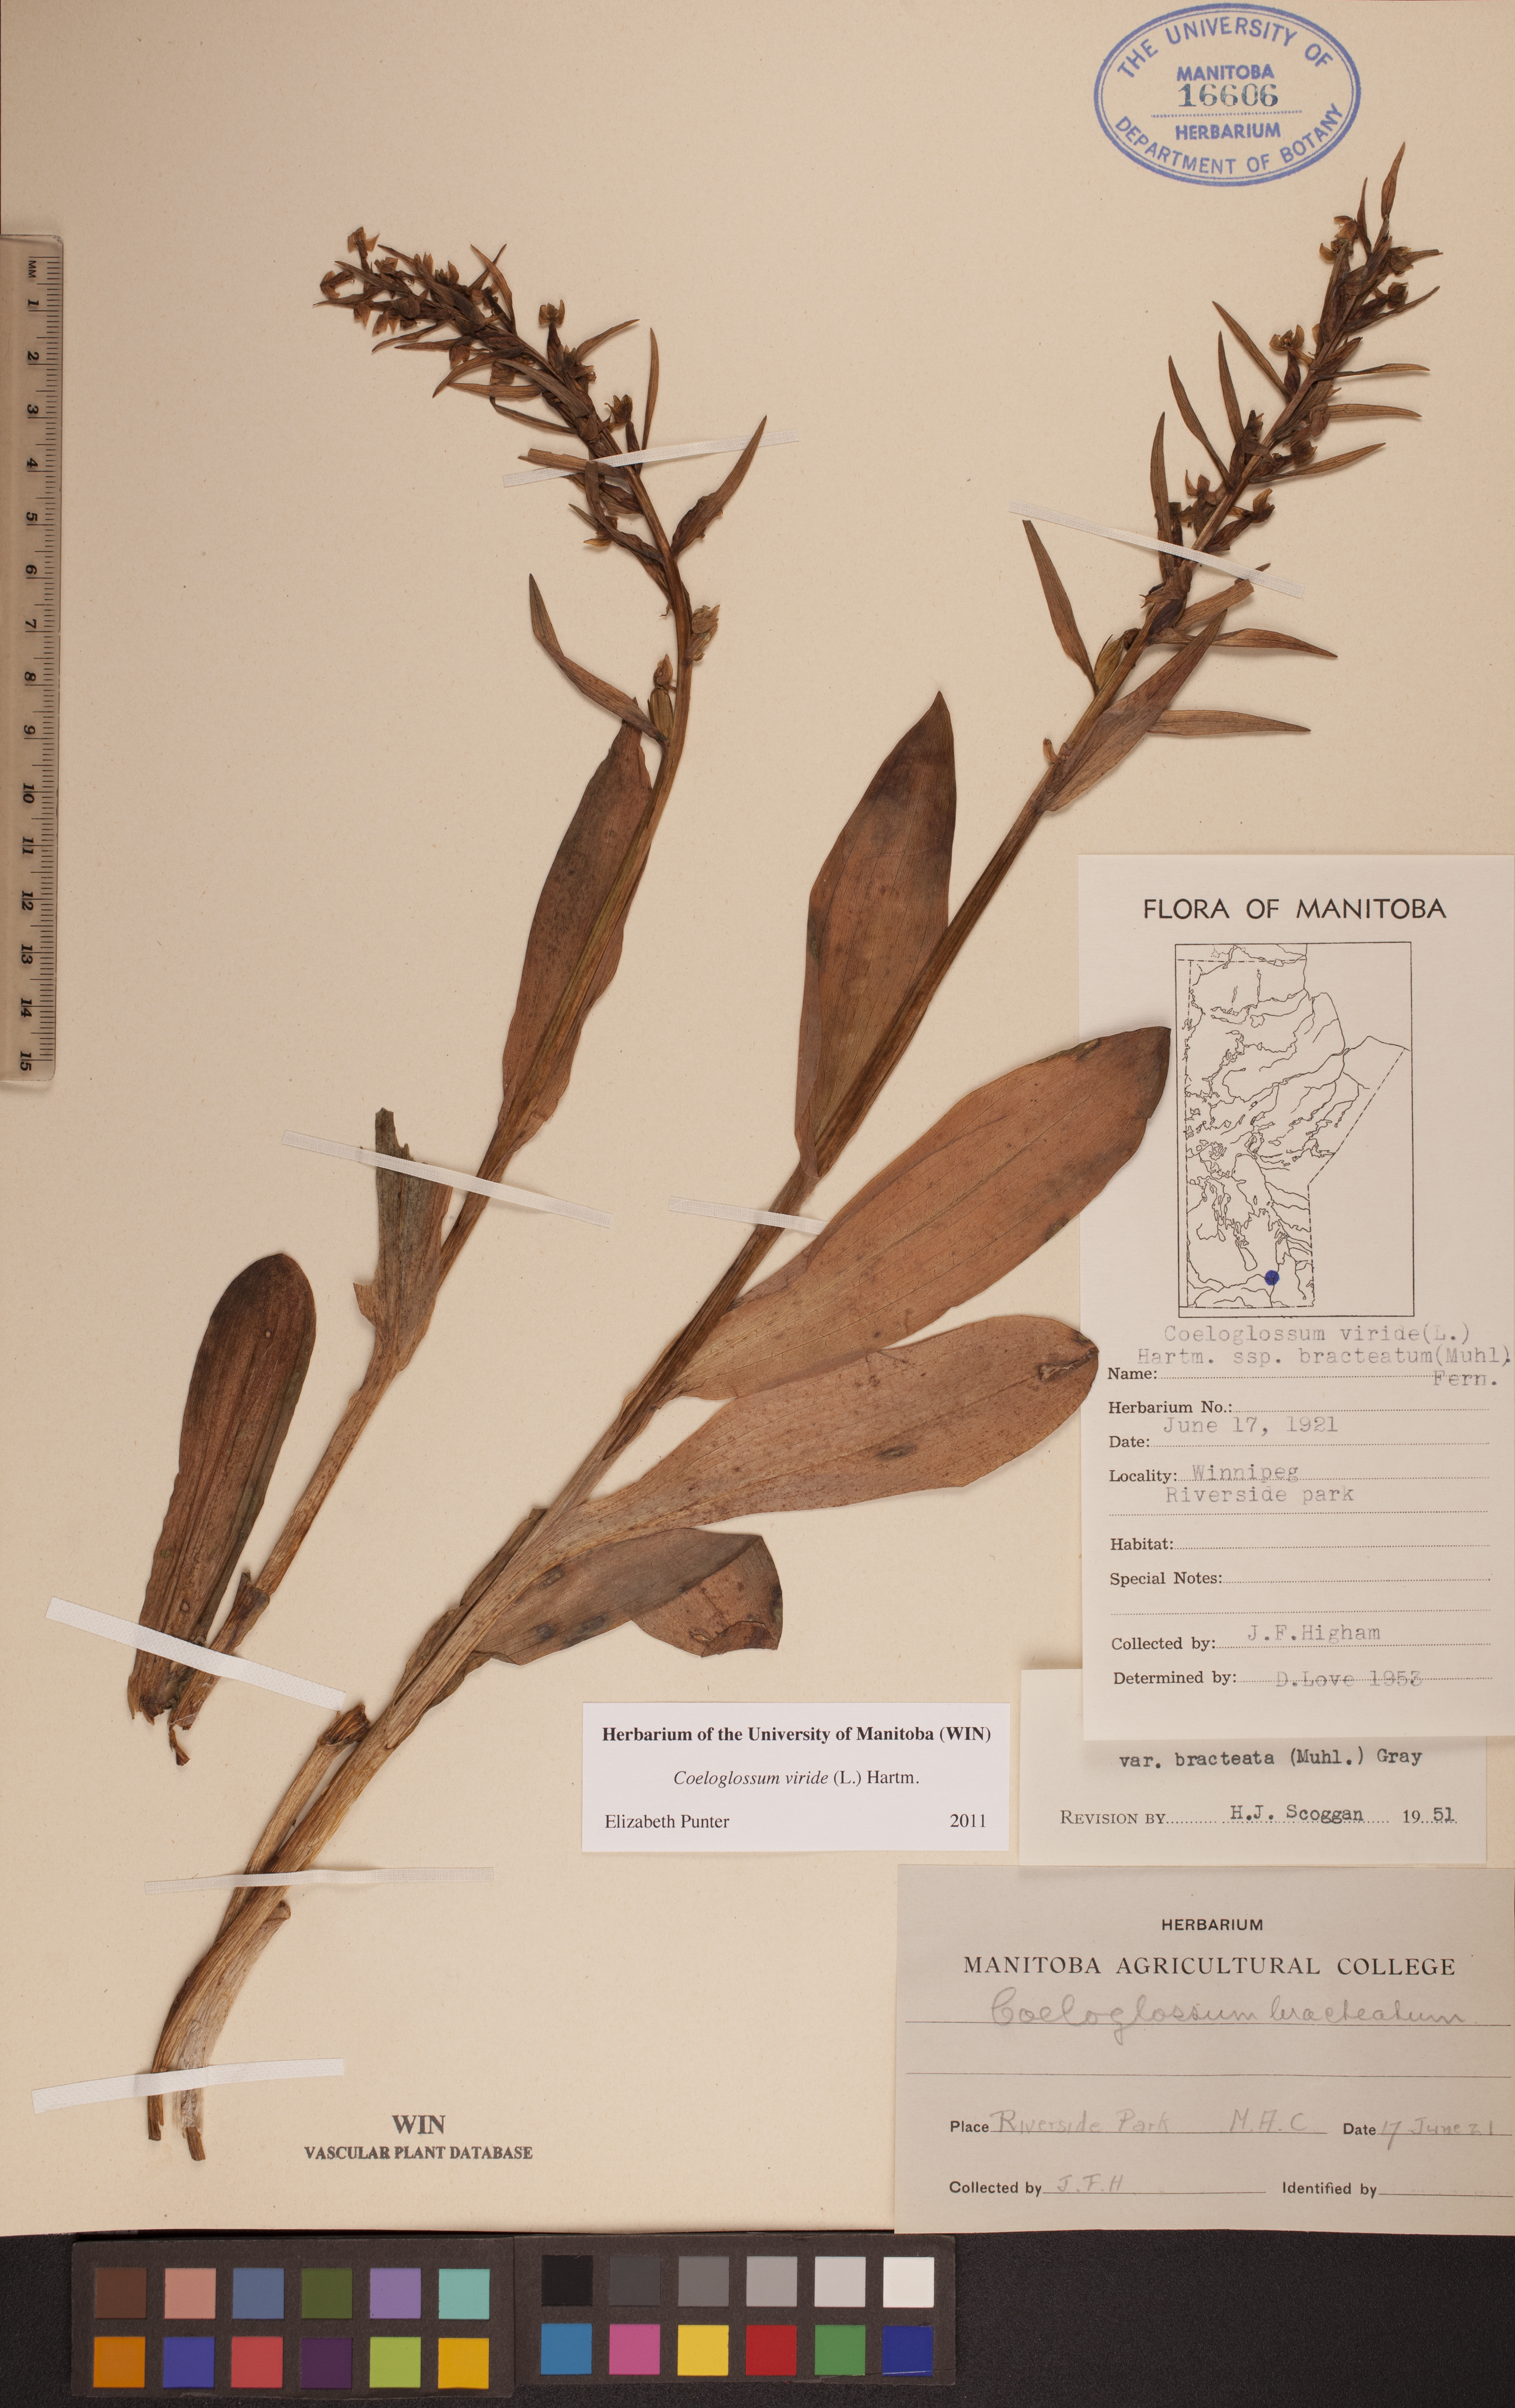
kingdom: Plantae
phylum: Tracheophyta
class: Liliopsida
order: Asparagales
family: Orchidaceae
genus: Dactylorhiza
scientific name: Dactylorhiza viridis
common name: Longbract frog orchid
